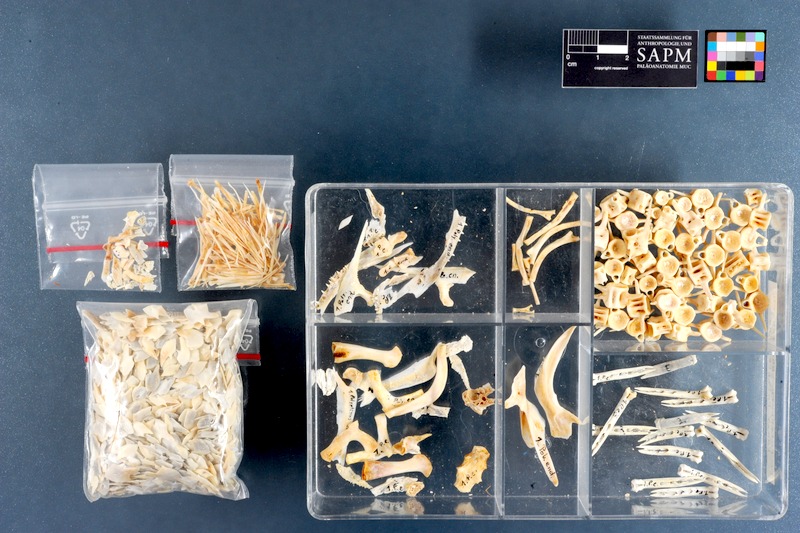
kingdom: Animalia
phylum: Chordata
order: Polypteriformes
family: Polypteridae
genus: Polypterus
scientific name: Polypterus endlicherii
